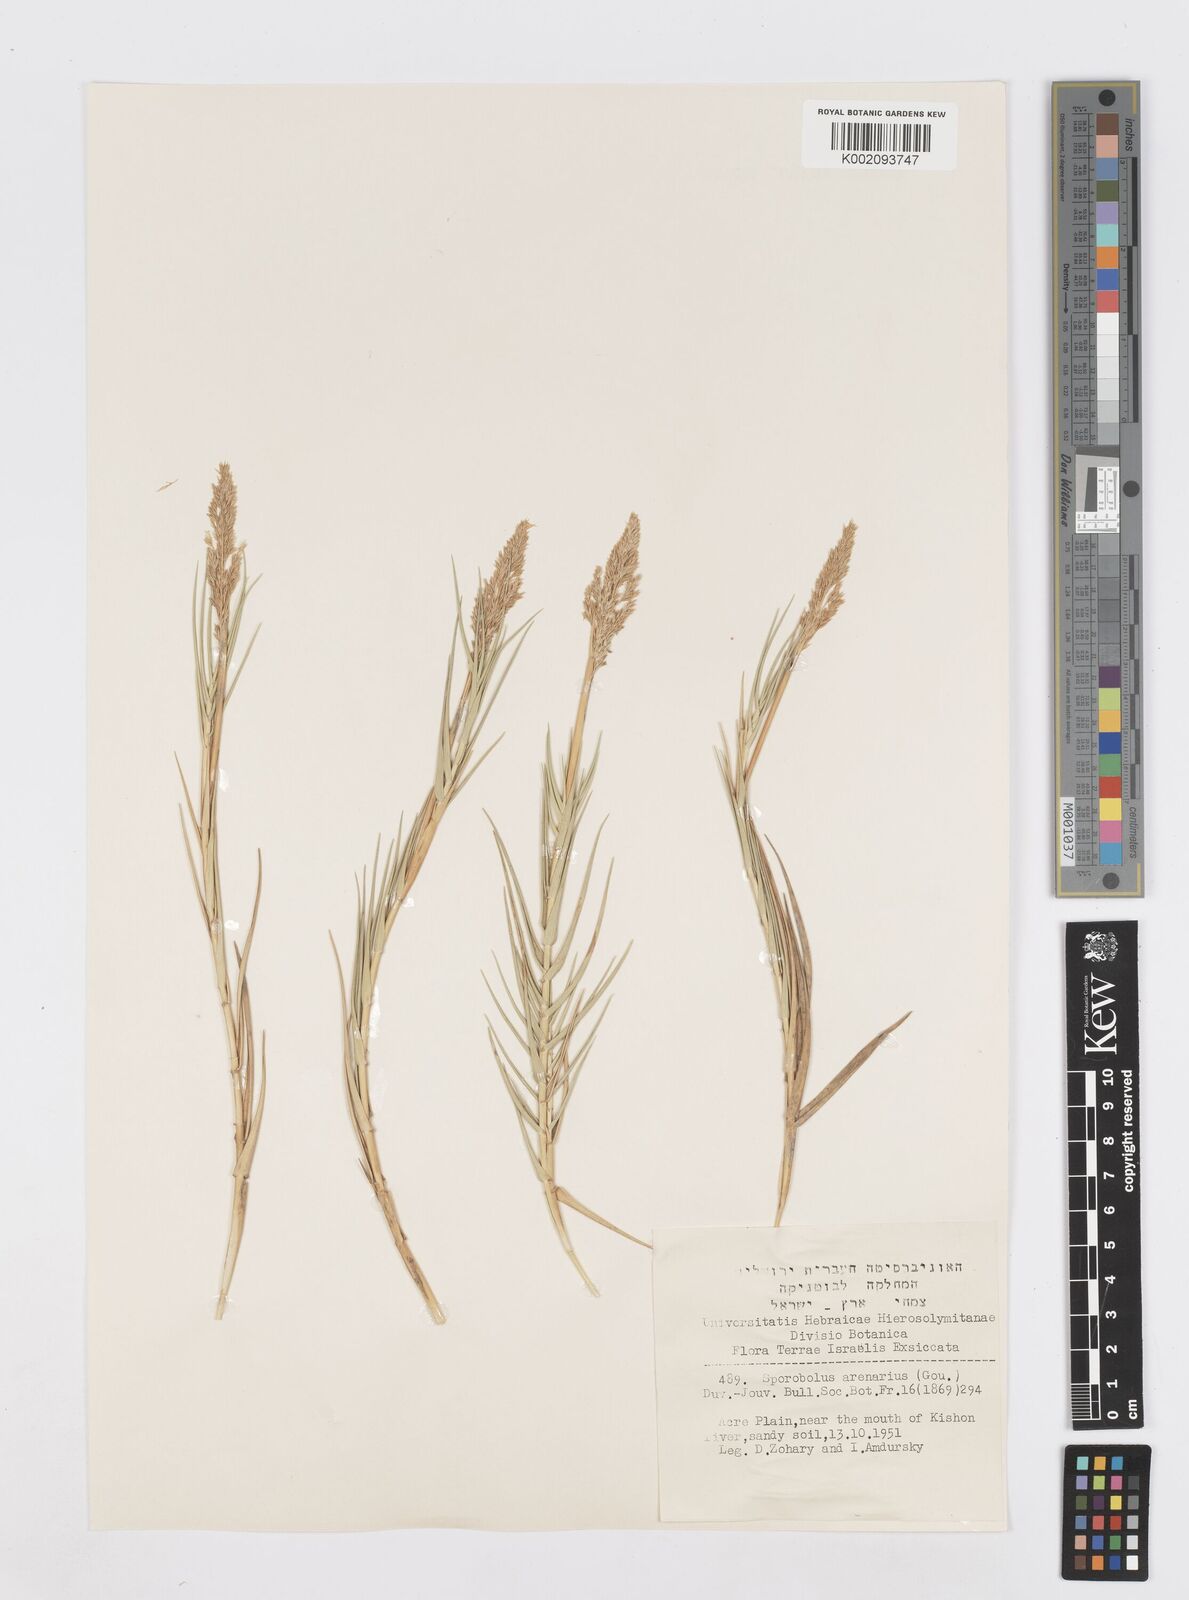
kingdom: Plantae
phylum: Tracheophyta
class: Liliopsida
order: Poales
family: Poaceae
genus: Sporobolus
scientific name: Sporobolus pungens
